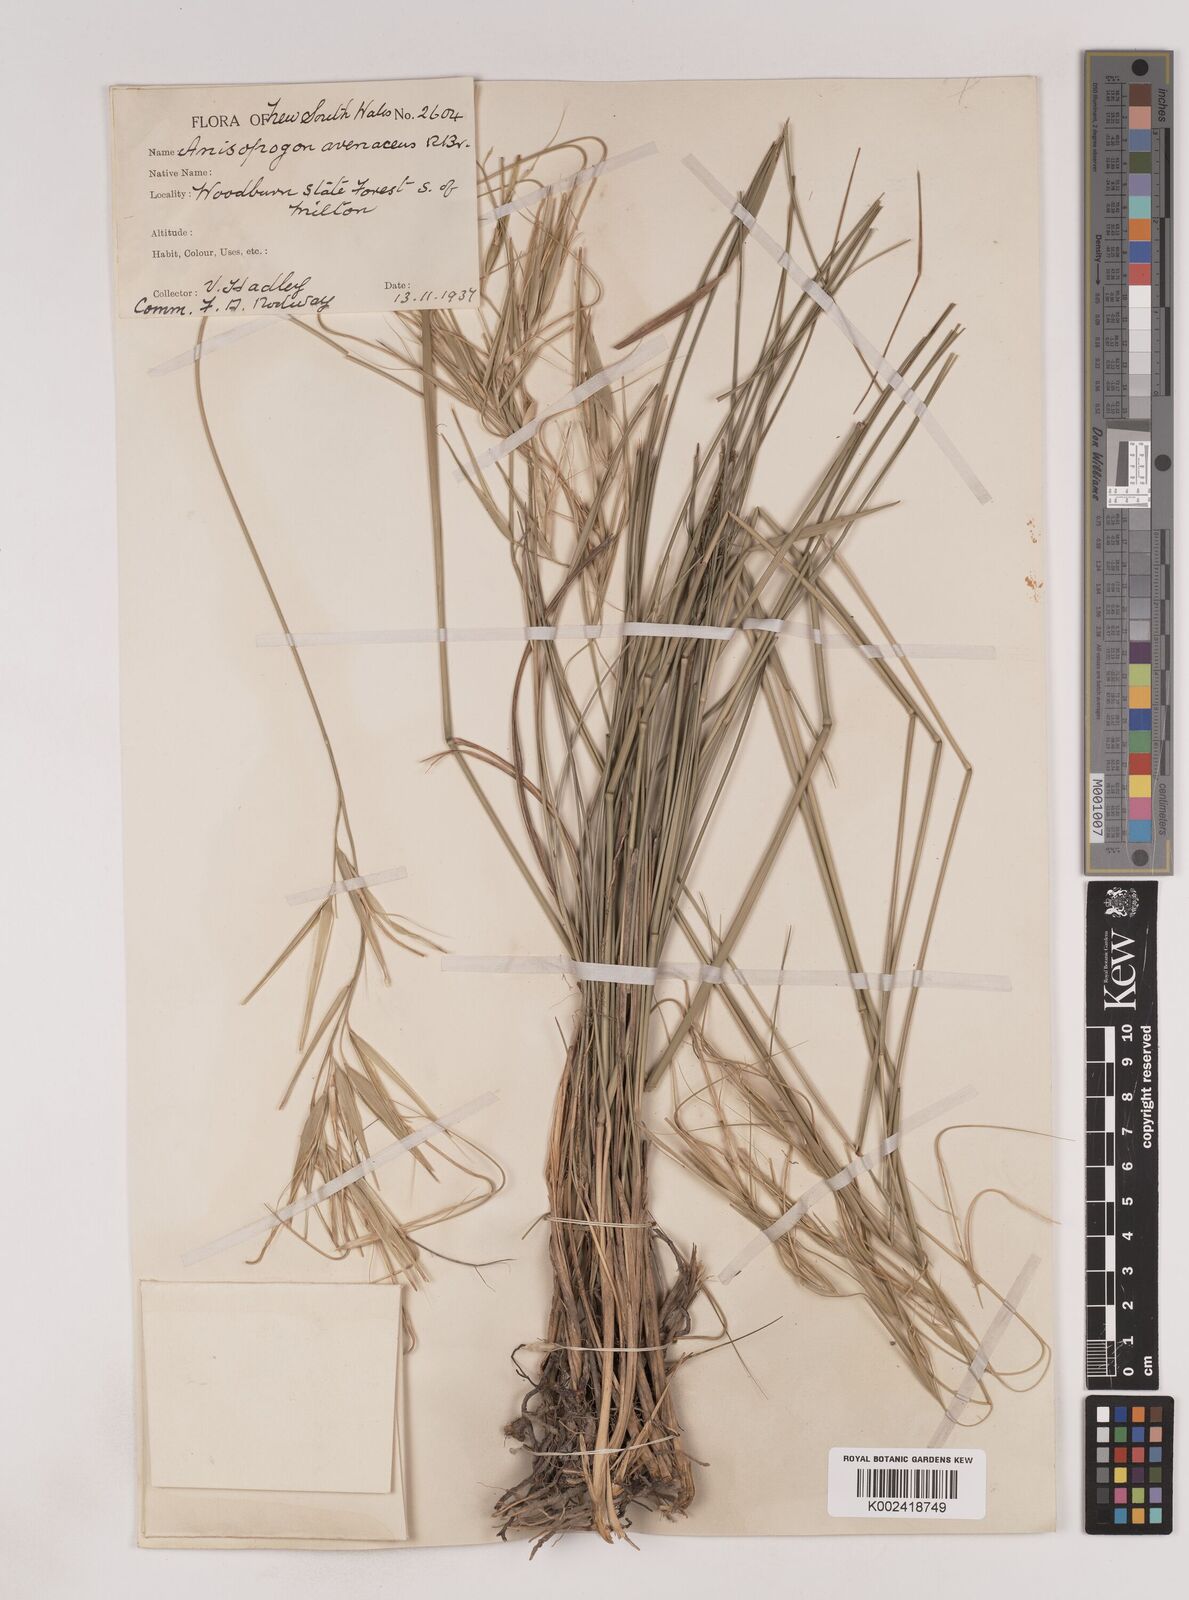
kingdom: Plantae
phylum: Tracheophyta
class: Liliopsida
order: Poales
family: Poaceae
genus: Anisopogon
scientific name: Anisopogon avenaceus
